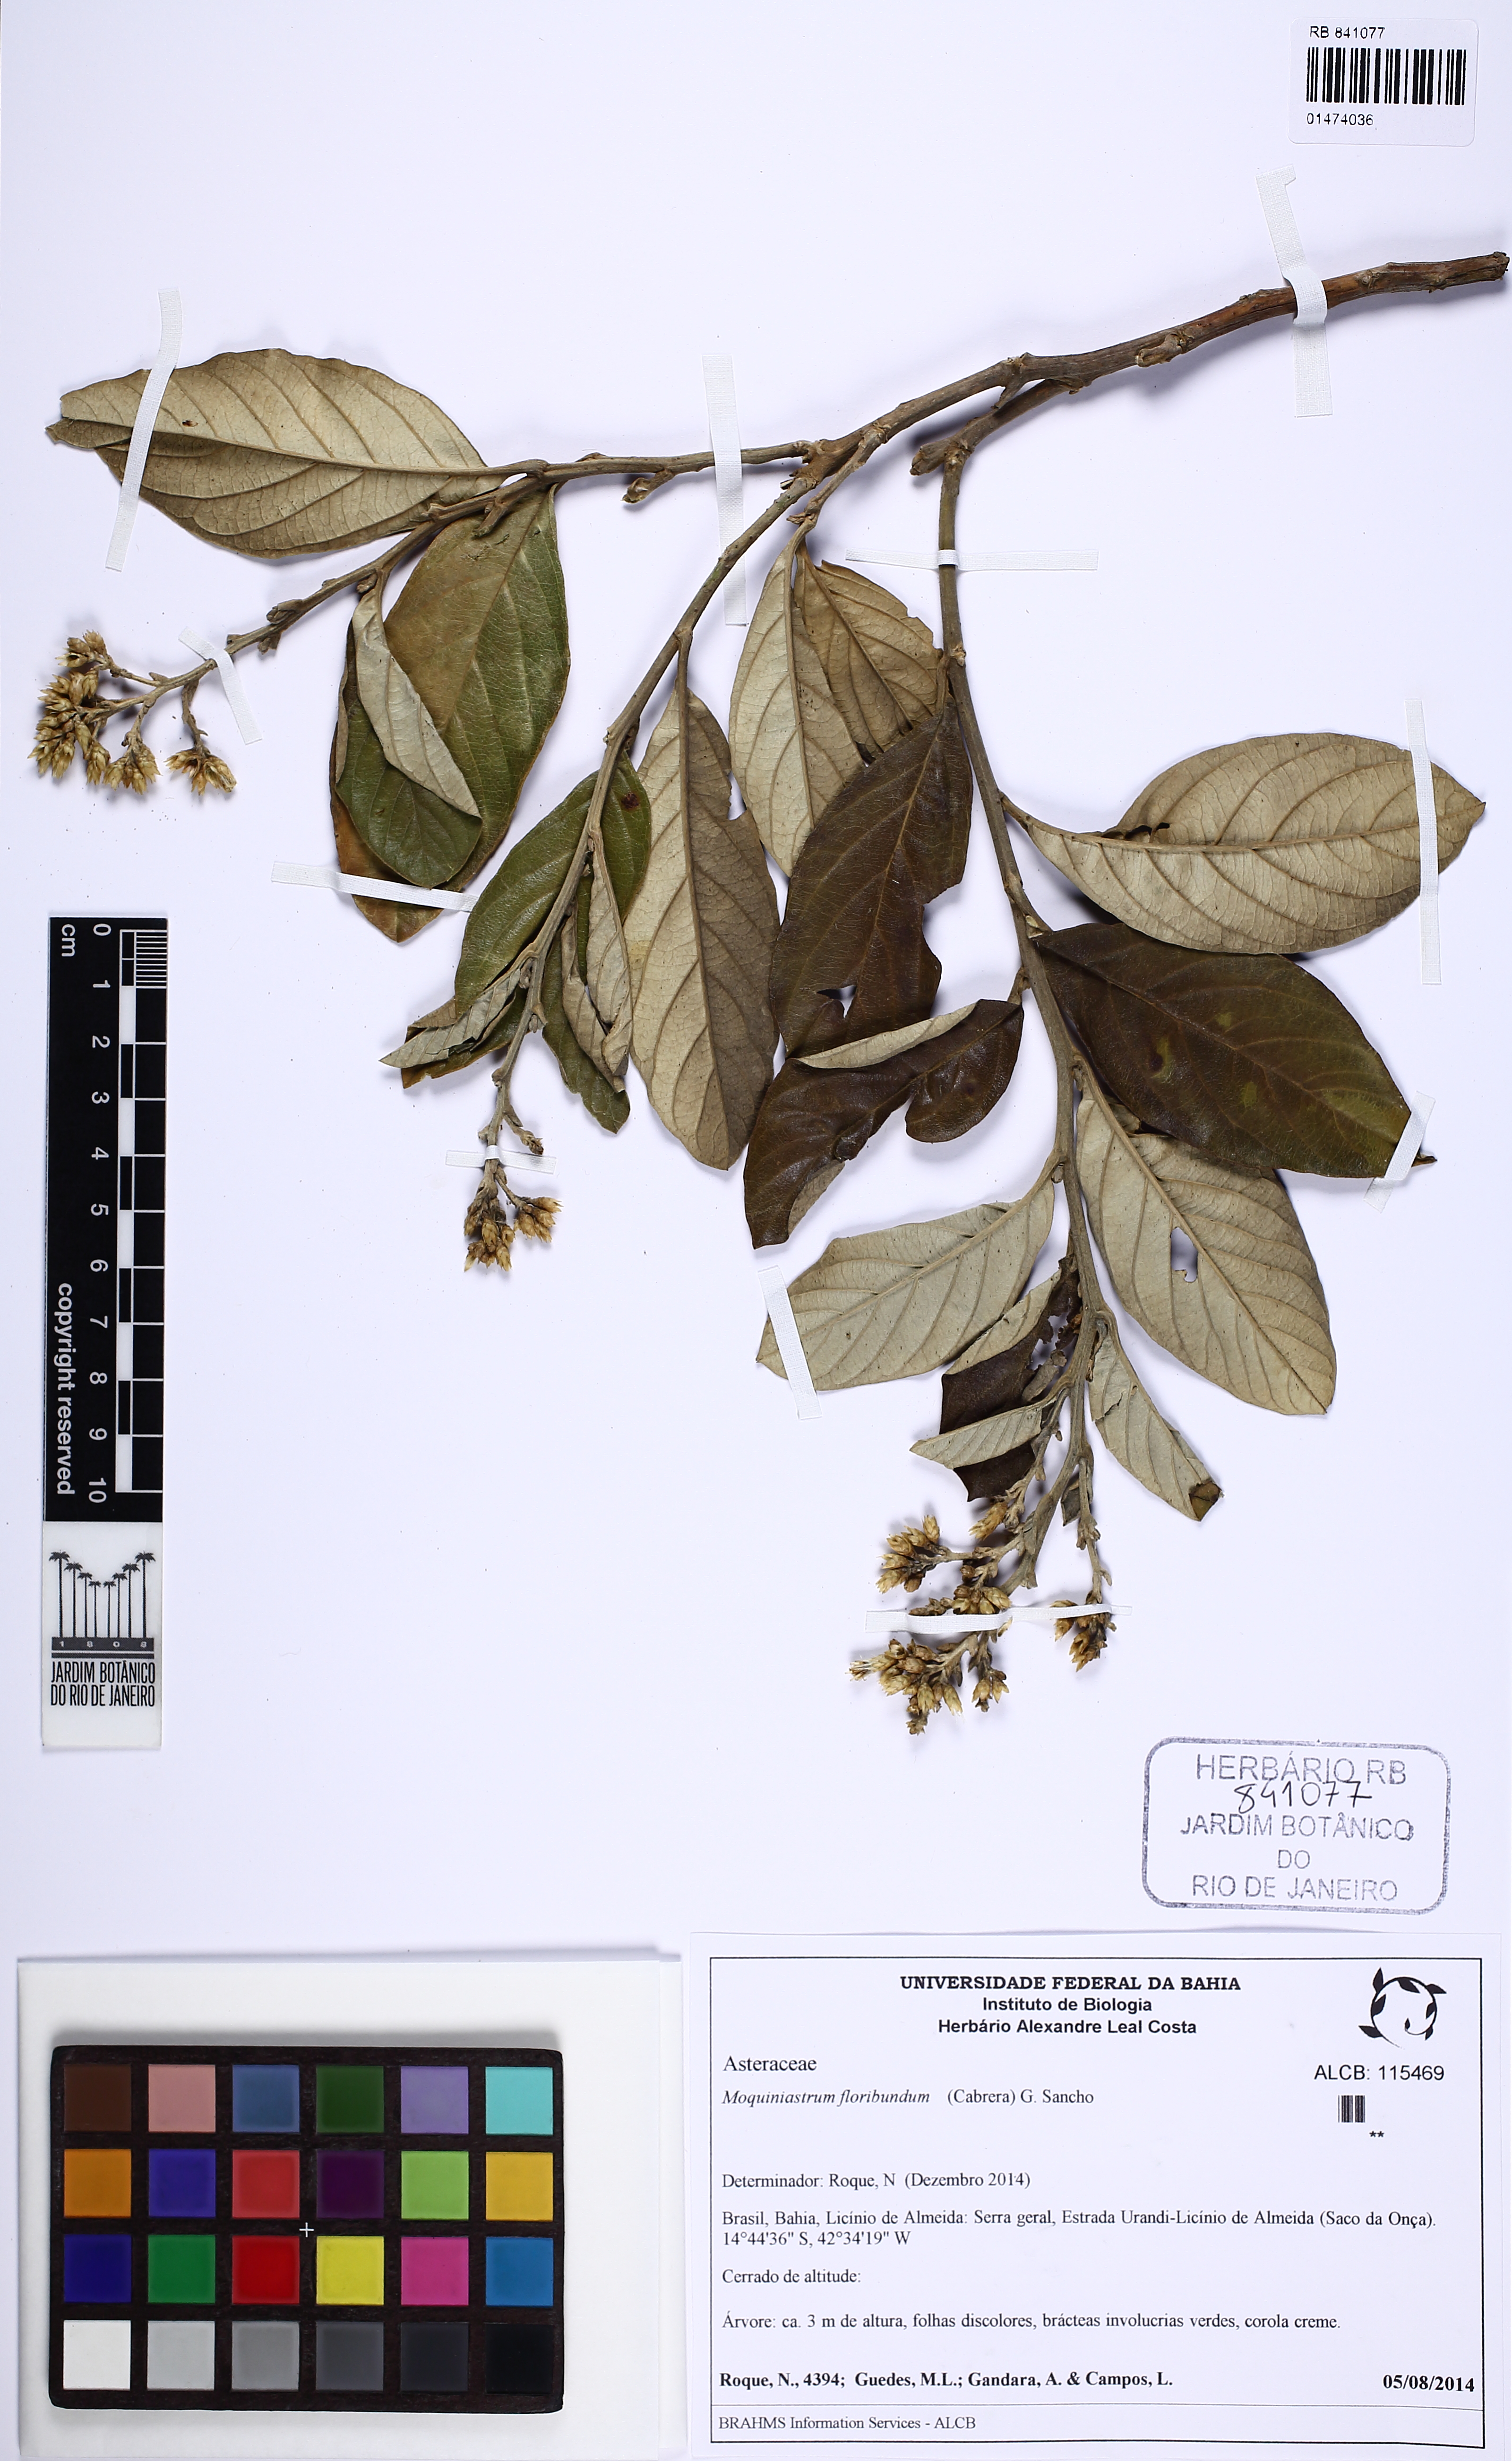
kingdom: Plantae
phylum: Tracheophyta
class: Magnoliopsida
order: Asterales
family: Asteraceae
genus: Moquiniastrum
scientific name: Moquiniastrum floribundum
